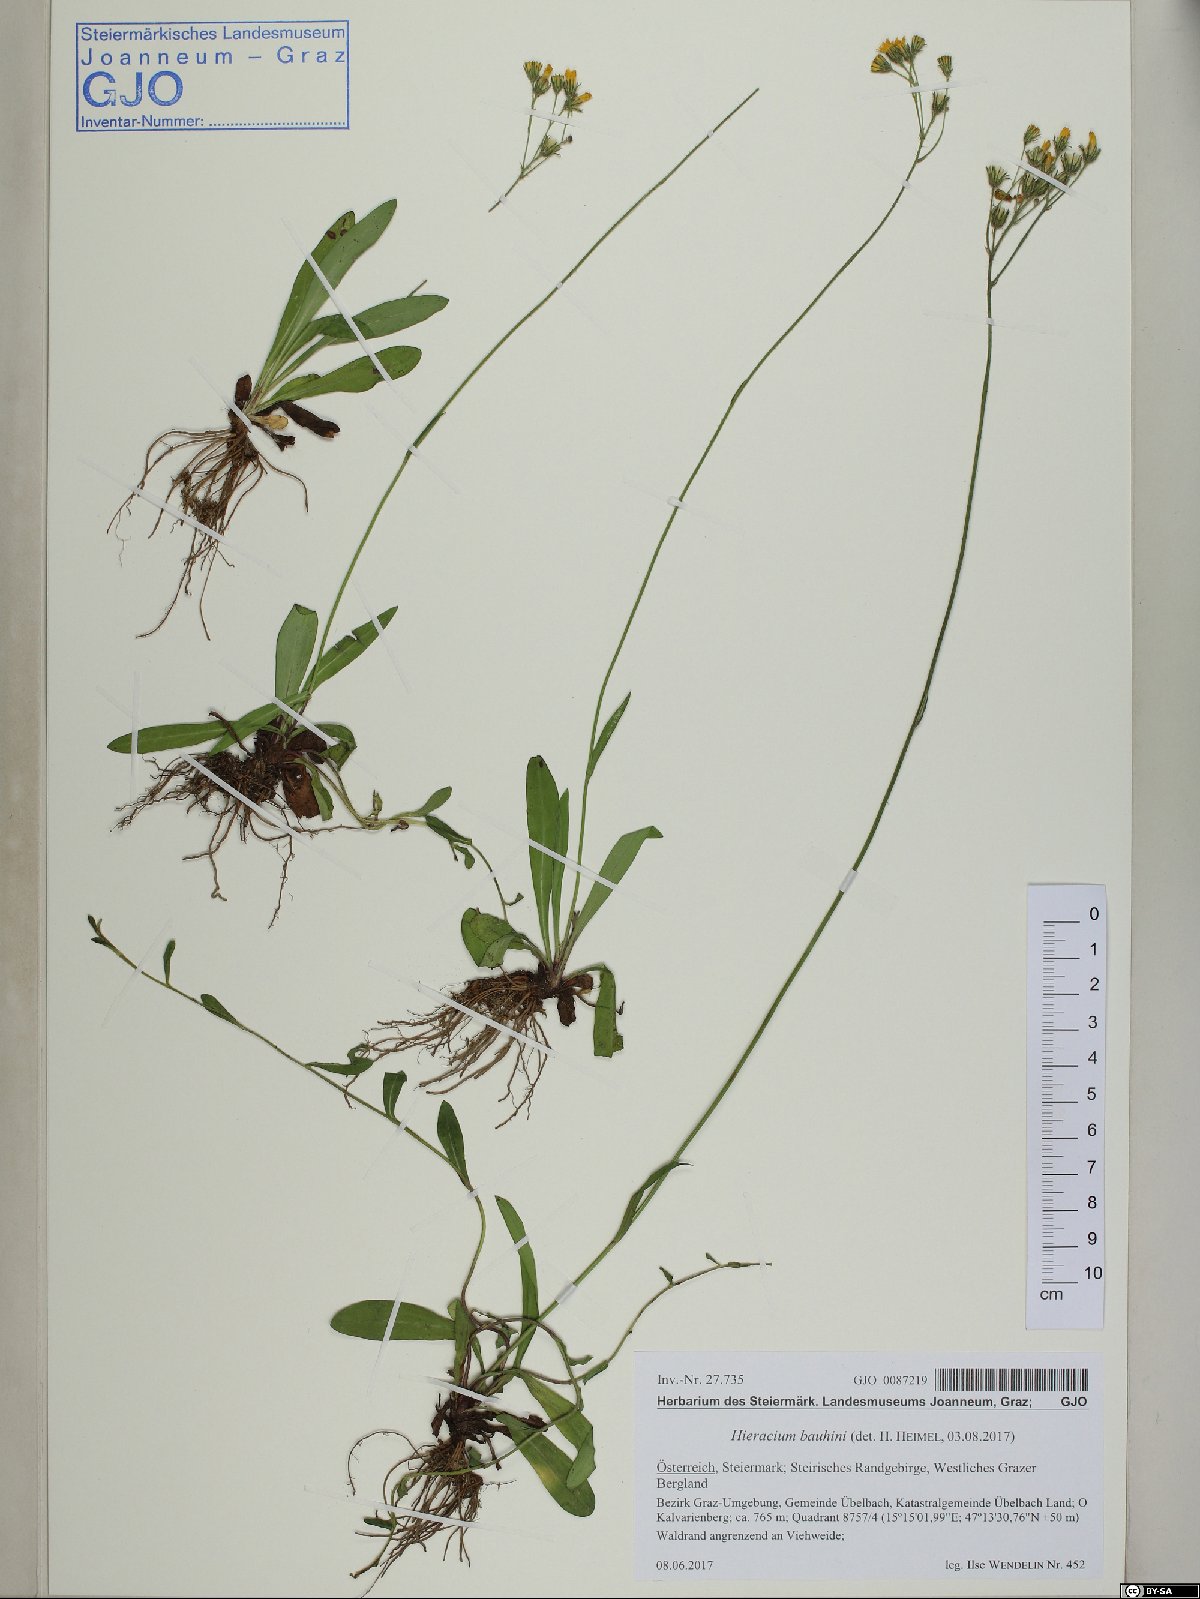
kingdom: Plantae
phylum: Tracheophyta
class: Magnoliopsida
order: Asterales
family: Asteraceae
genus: Pilosella
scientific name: Pilosella bauhini
